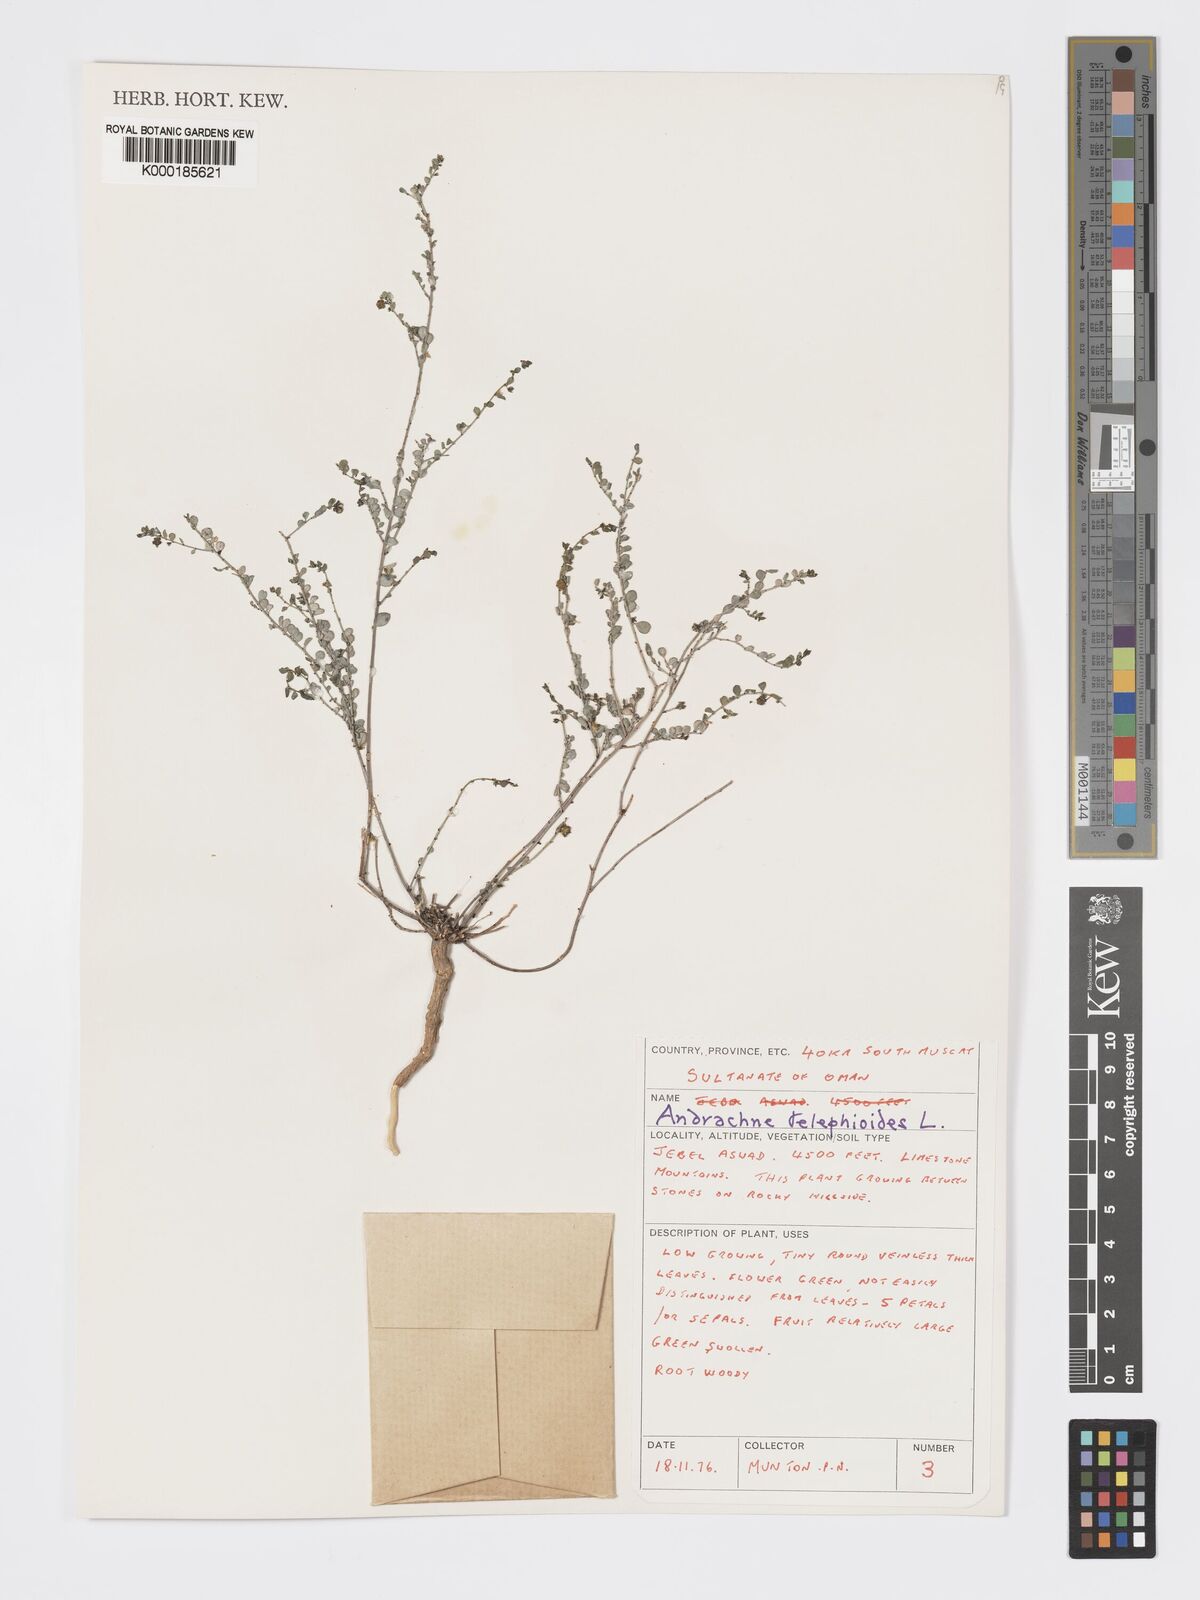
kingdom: Plantae
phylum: Tracheophyta
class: Magnoliopsida
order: Malpighiales
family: Phyllanthaceae
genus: Andrachne
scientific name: Andrachne telephioides
